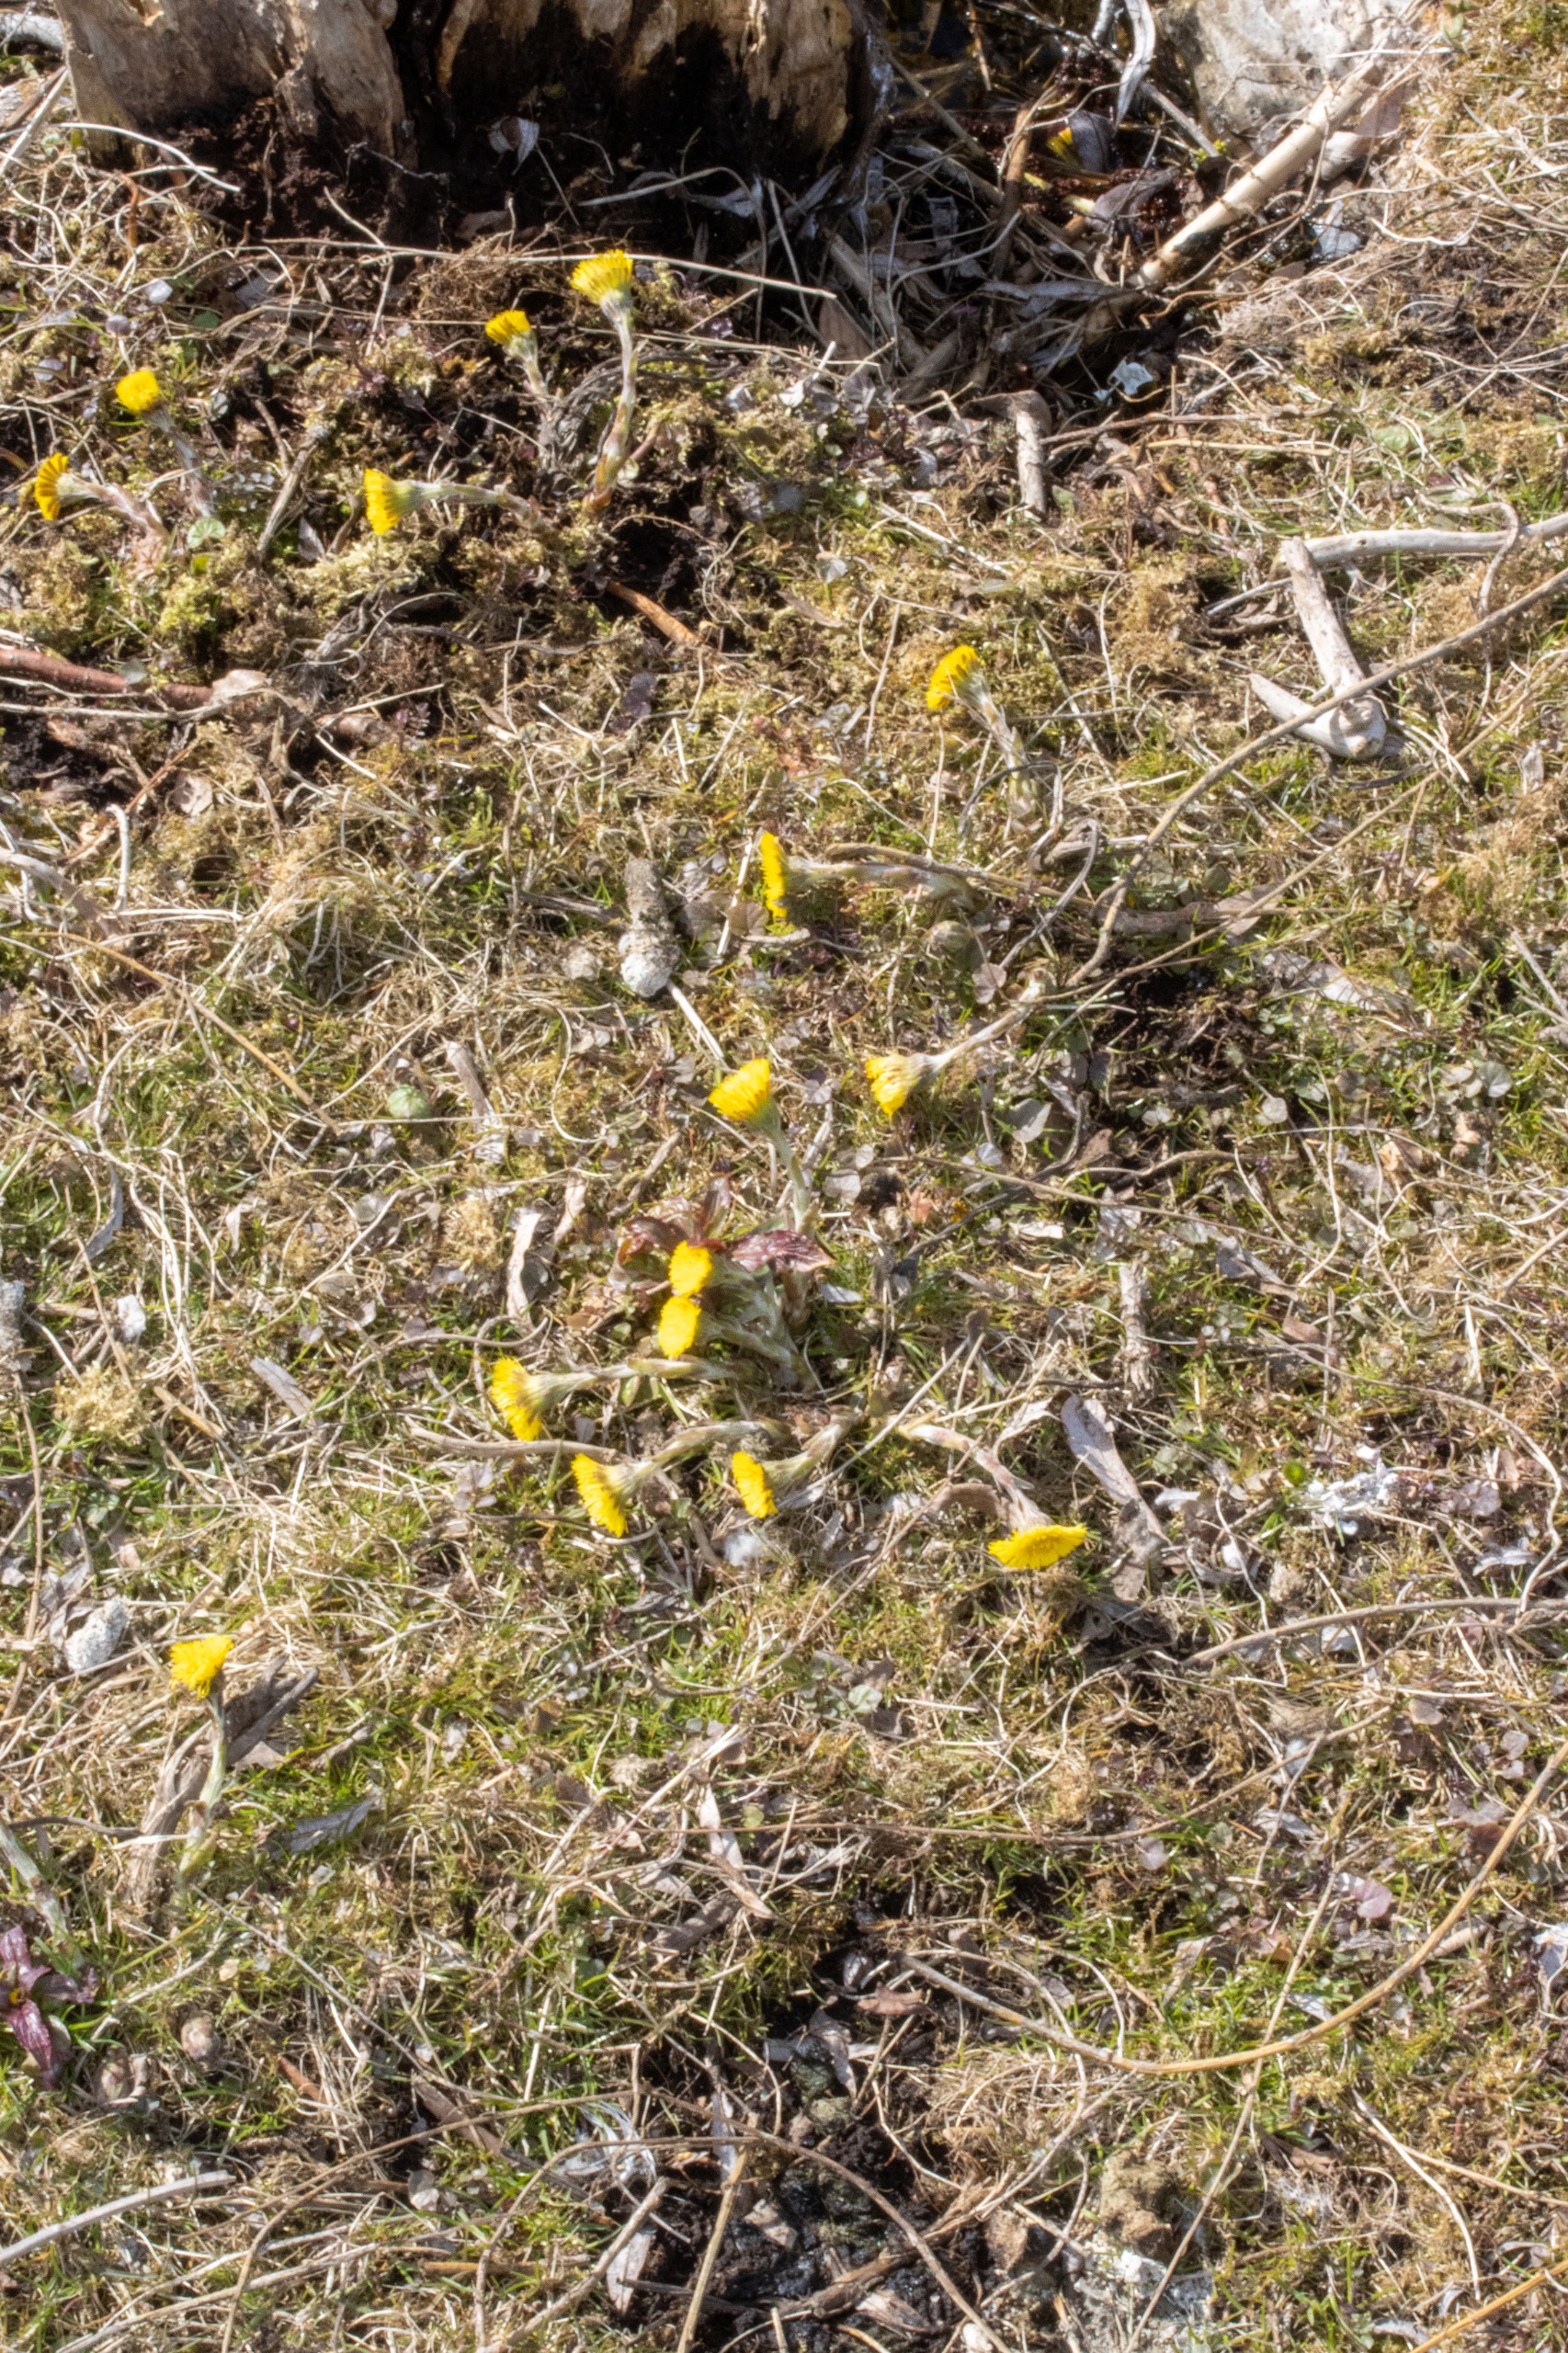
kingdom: Plantae
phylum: Tracheophyta
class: Magnoliopsida
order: Asterales
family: Asteraceae
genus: Tussilago
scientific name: Tussilago farfara
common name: Følfod
